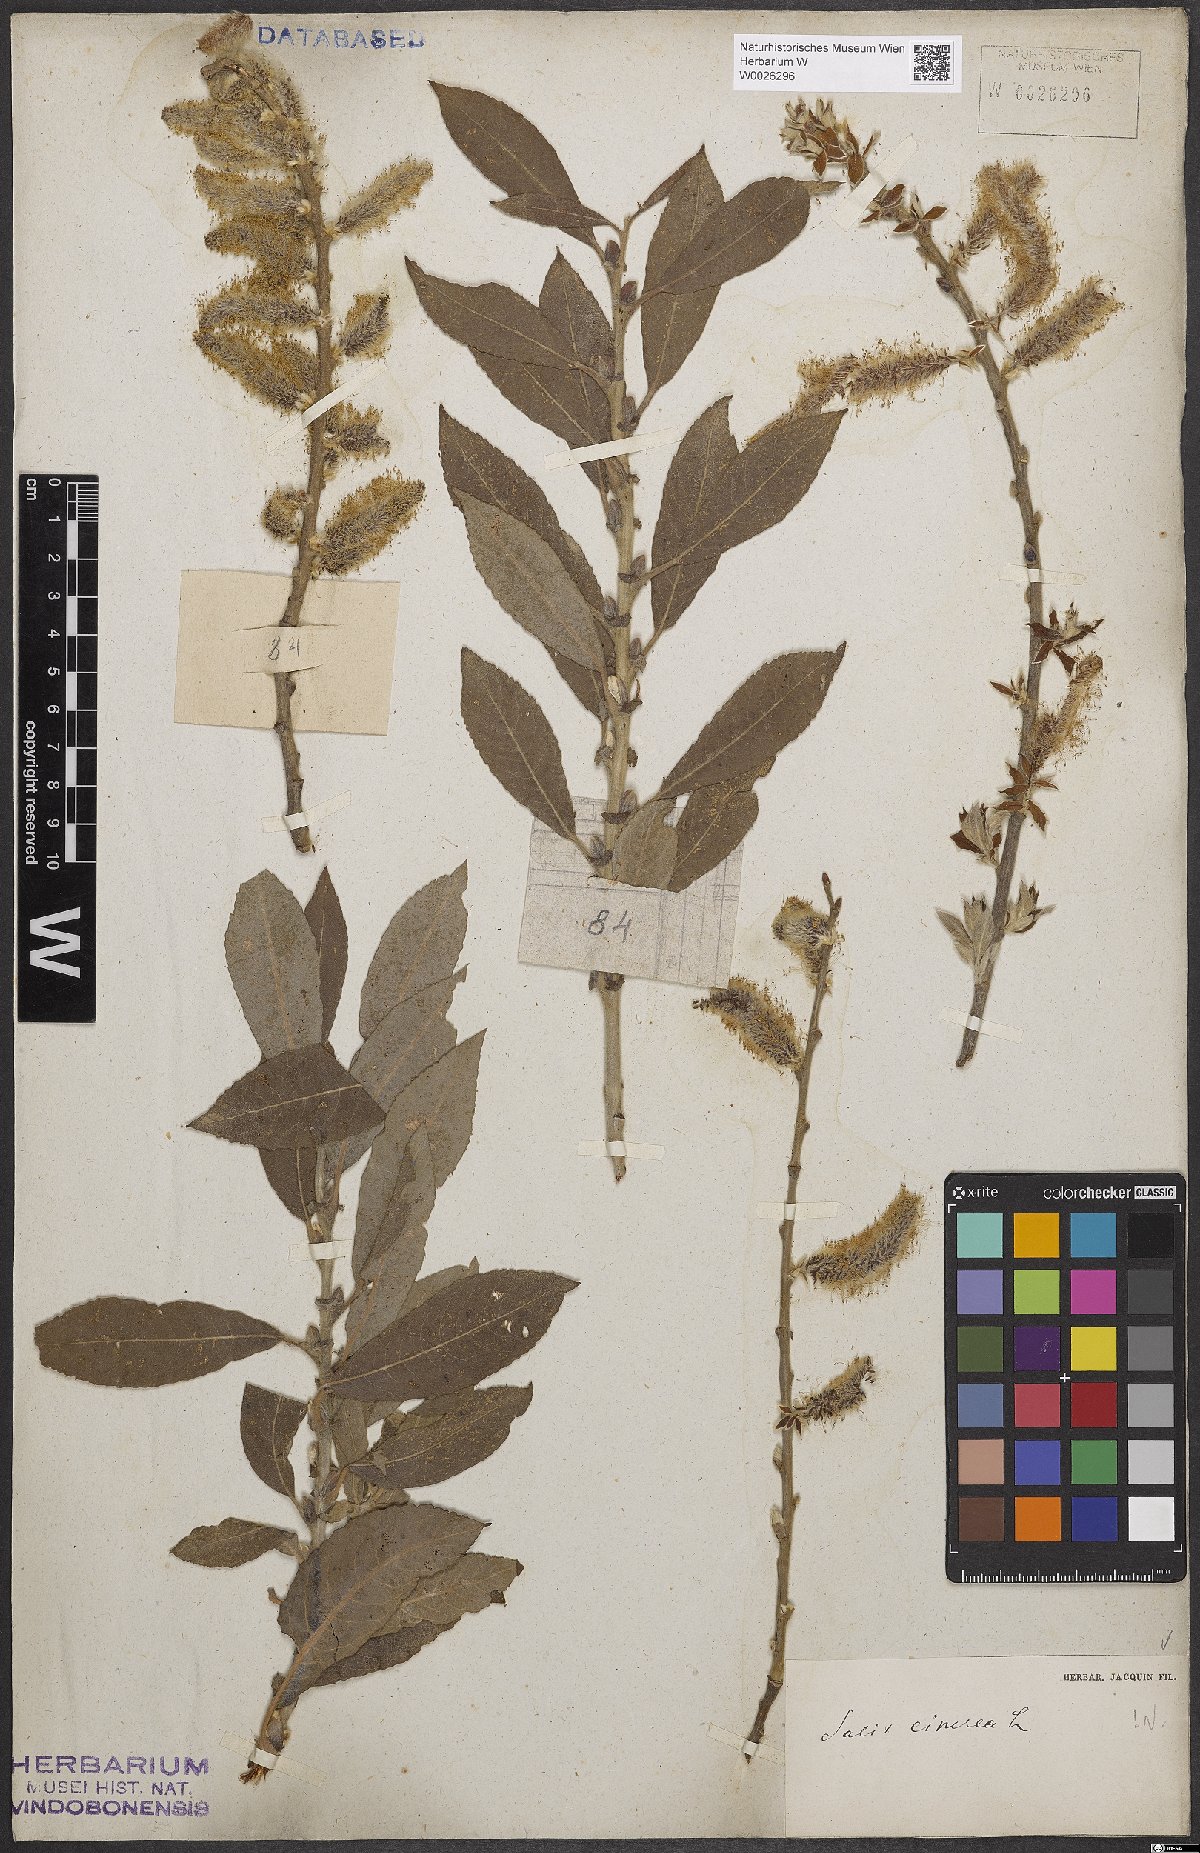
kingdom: Plantae
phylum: Tracheophyta
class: Magnoliopsida
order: Malpighiales
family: Salicaceae
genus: Salix
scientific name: Salix cinerea
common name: Common sallow
